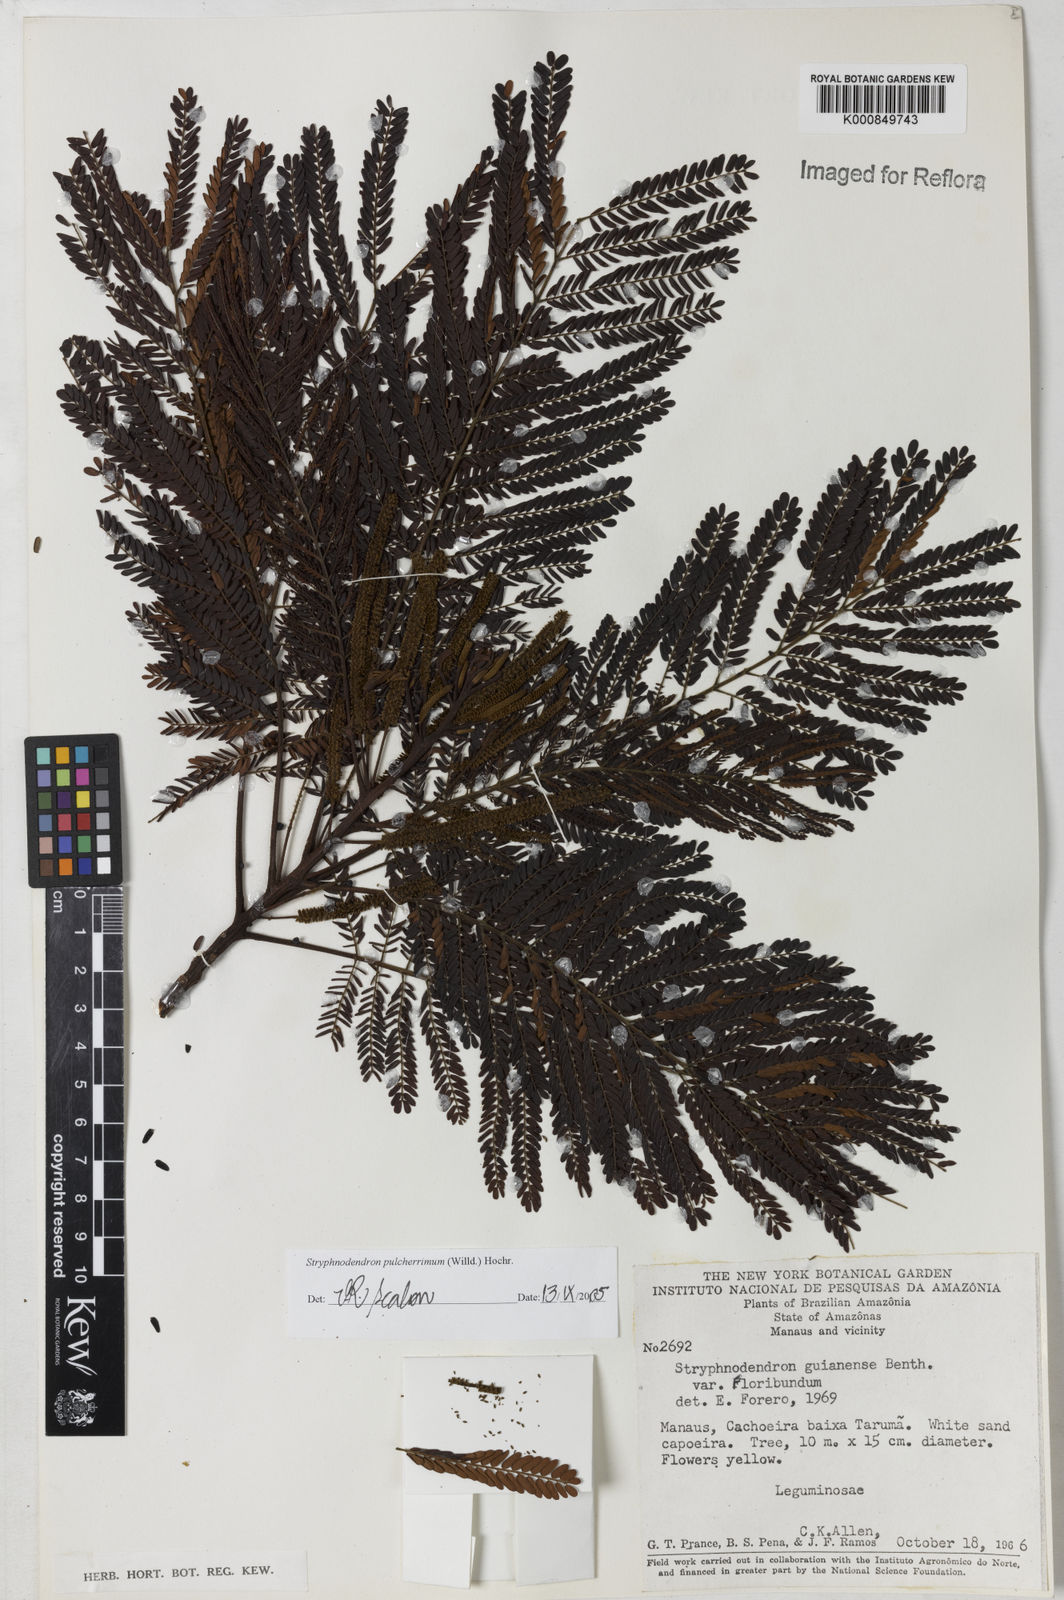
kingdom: Plantae
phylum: Tracheophyta
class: Magnoliopsida
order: Fabales
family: Fabaceae
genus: Stryphnodendron
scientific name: Stryphnodendron pulcherrimum
